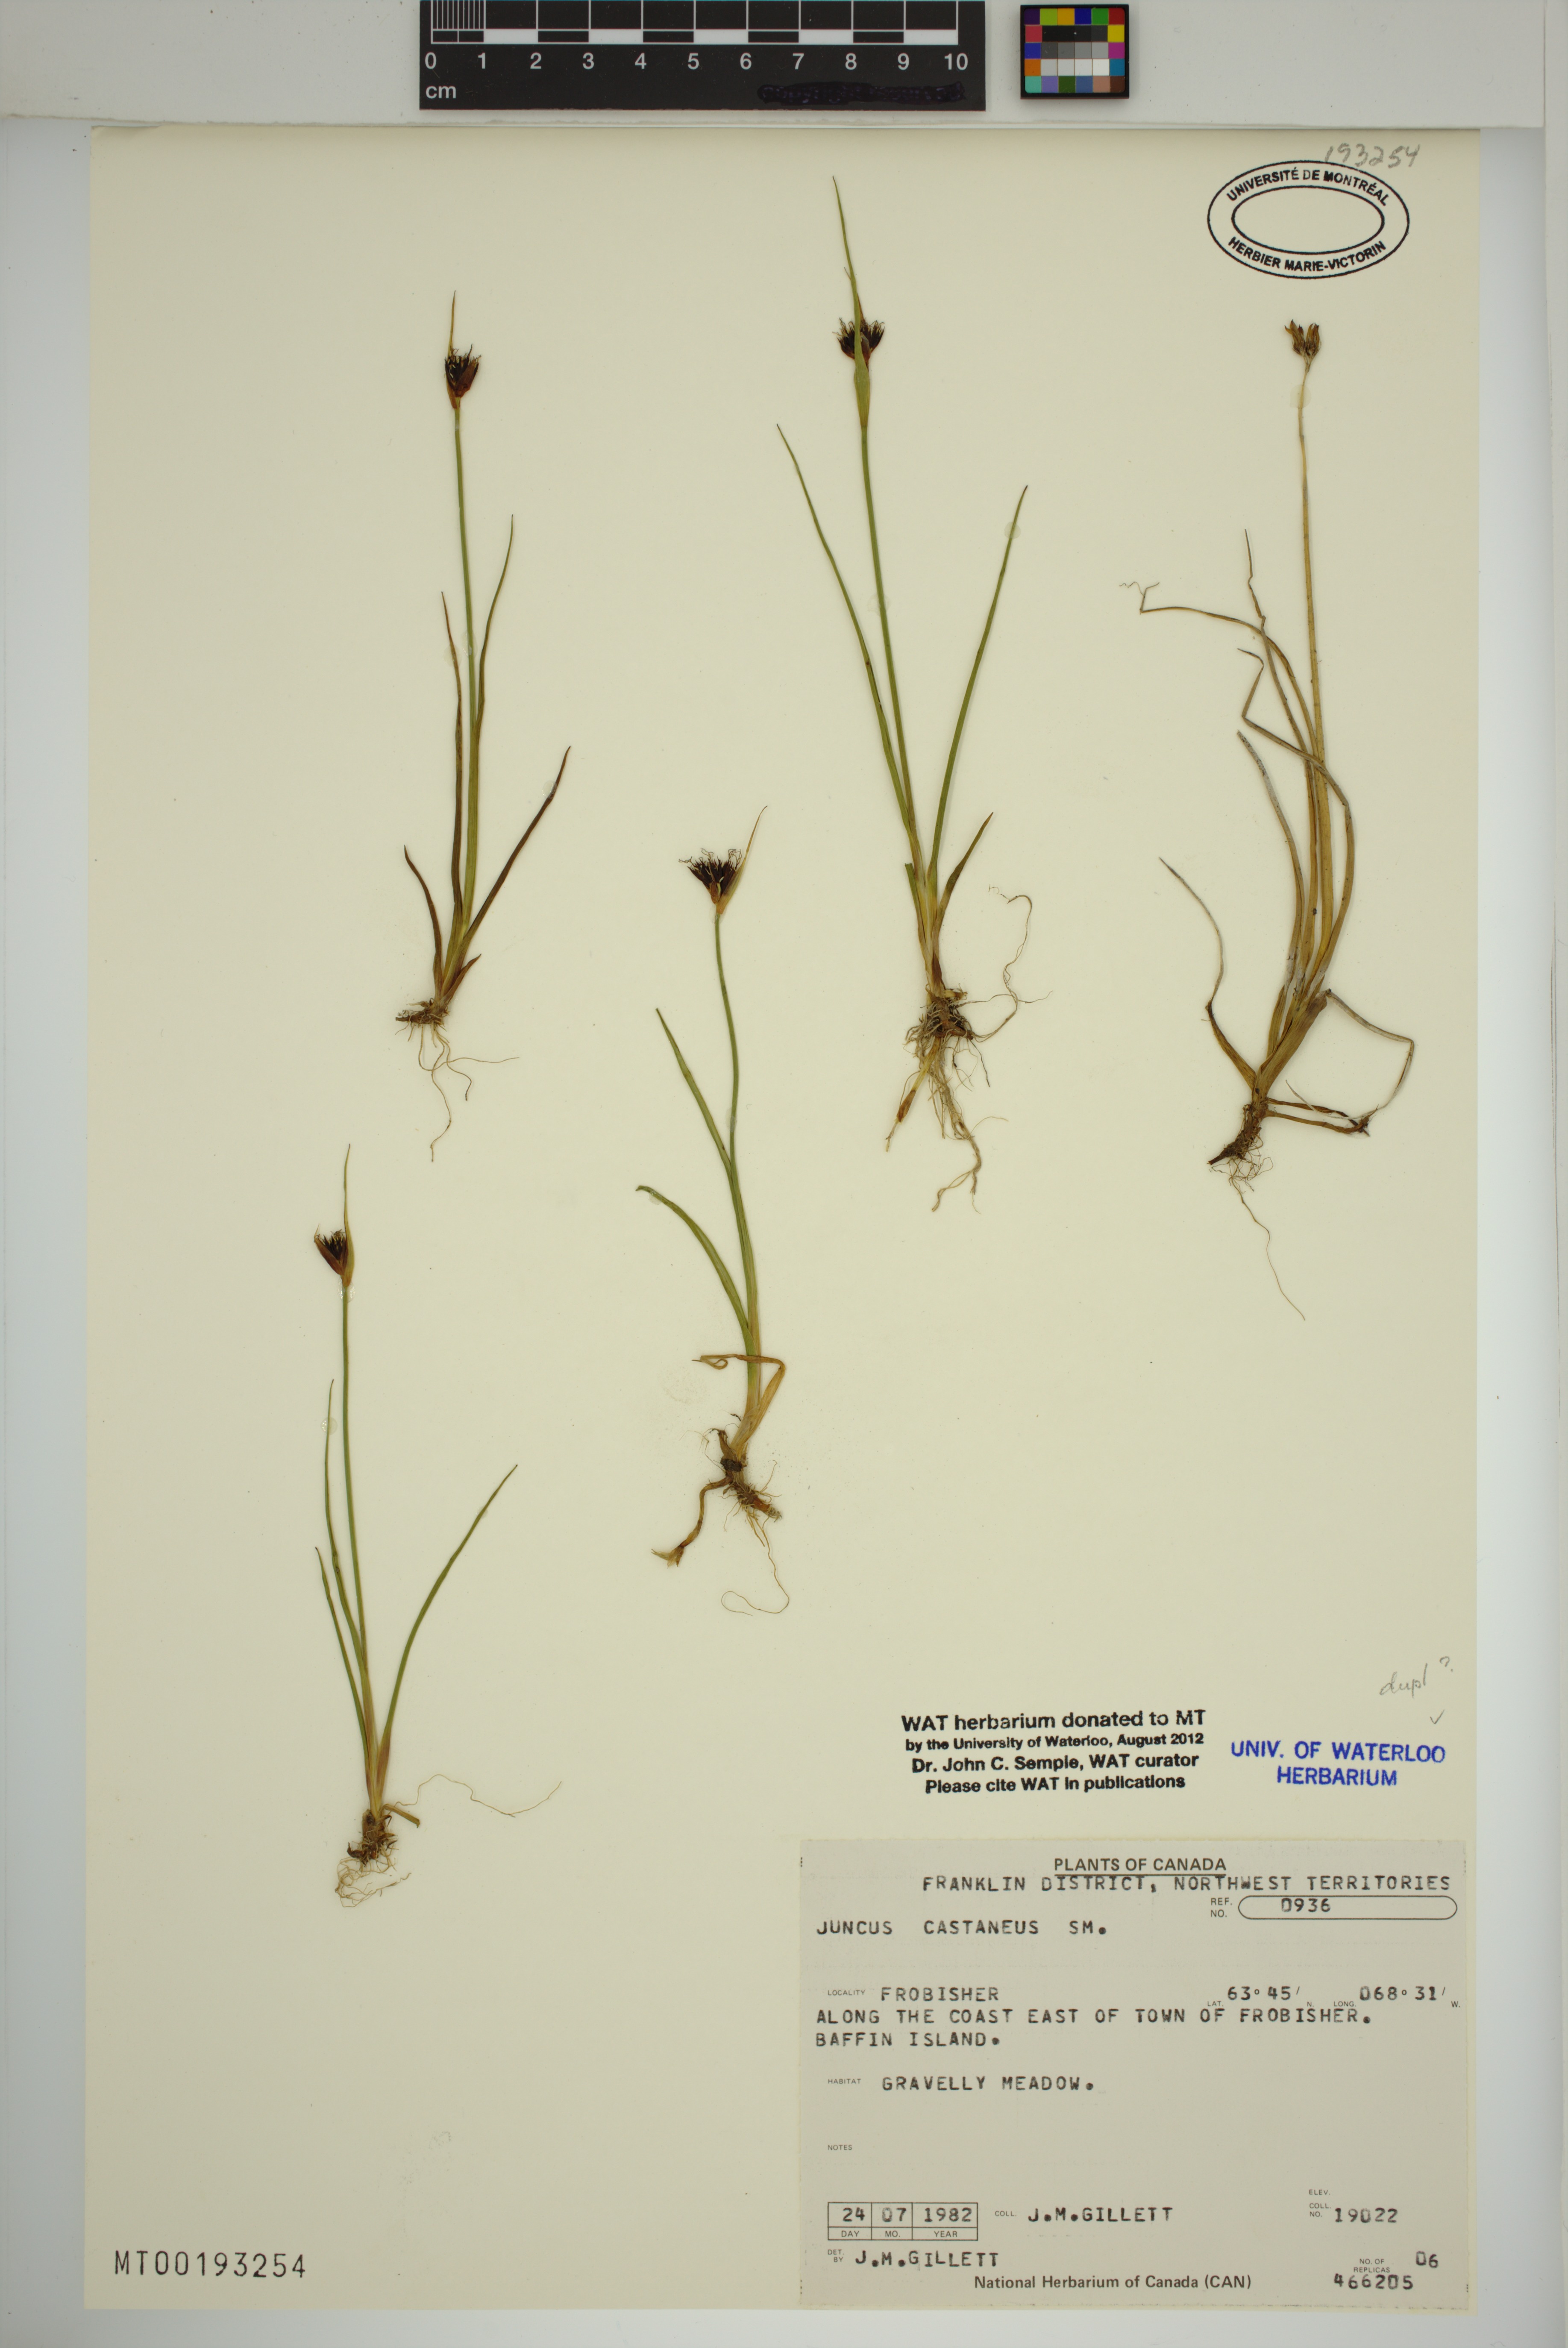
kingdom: Plantae
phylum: Tracheophyta
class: Liliopsida
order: Poales
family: Juncaceae
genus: Juncus
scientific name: Juncus castaneus
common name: Chestnut rush
